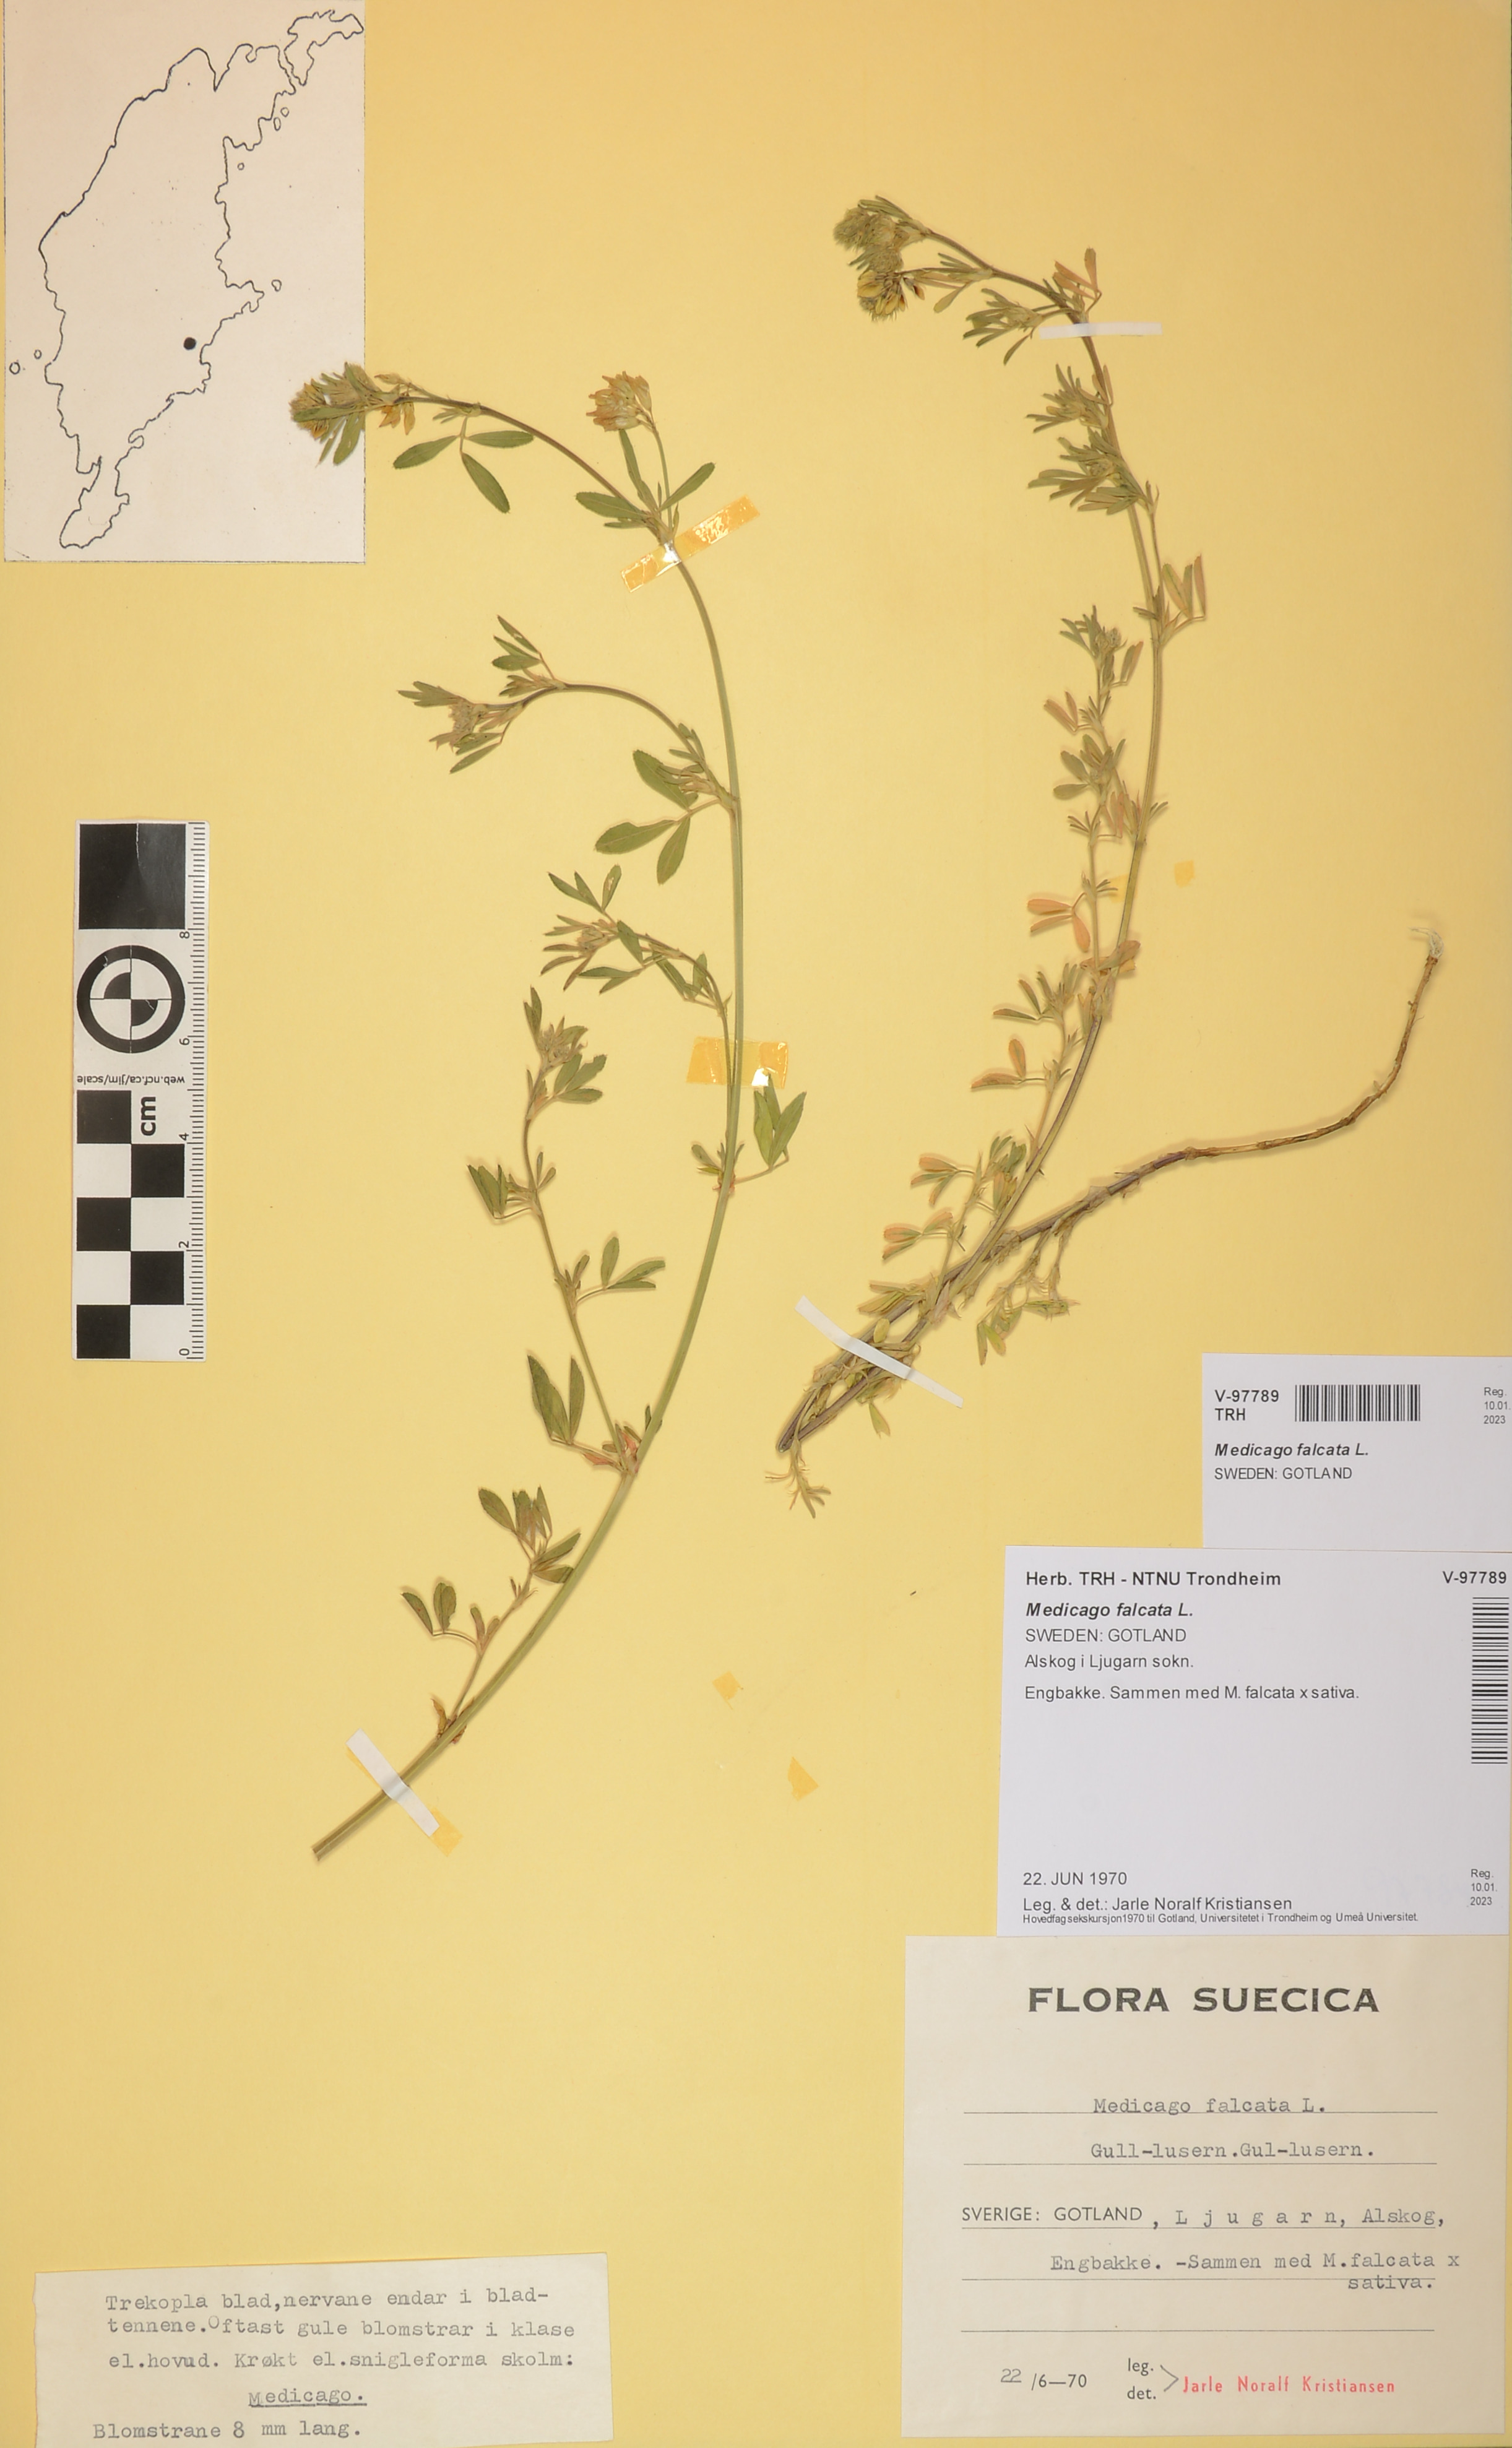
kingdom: Plantae
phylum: Tracheophyta
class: Magnoliopsida
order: Fabales
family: Fabaceae
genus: Medicago
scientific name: Medicago falcata
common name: Sickle medick
